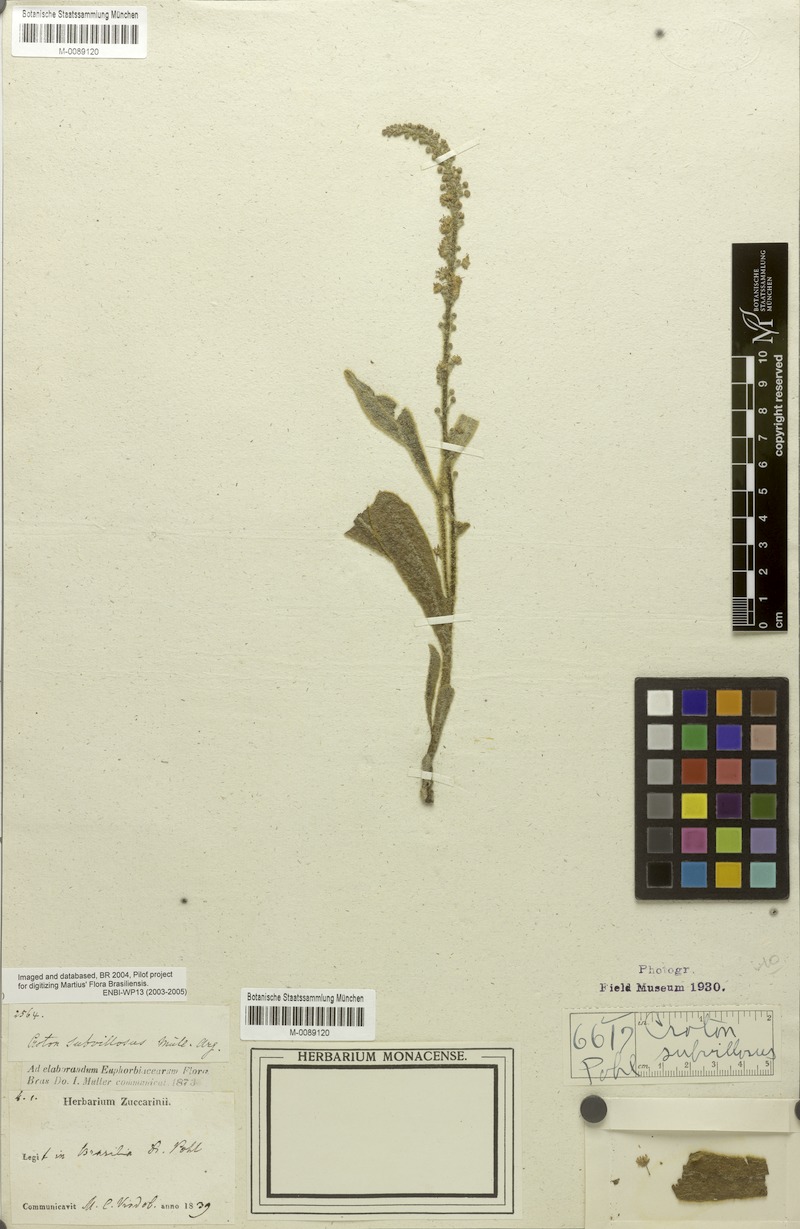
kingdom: Plantae
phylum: Tracheophyta
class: Magnoliopsida
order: Malpighiales
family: Euphorbiaceae
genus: Croton
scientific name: Croton subvillosus
